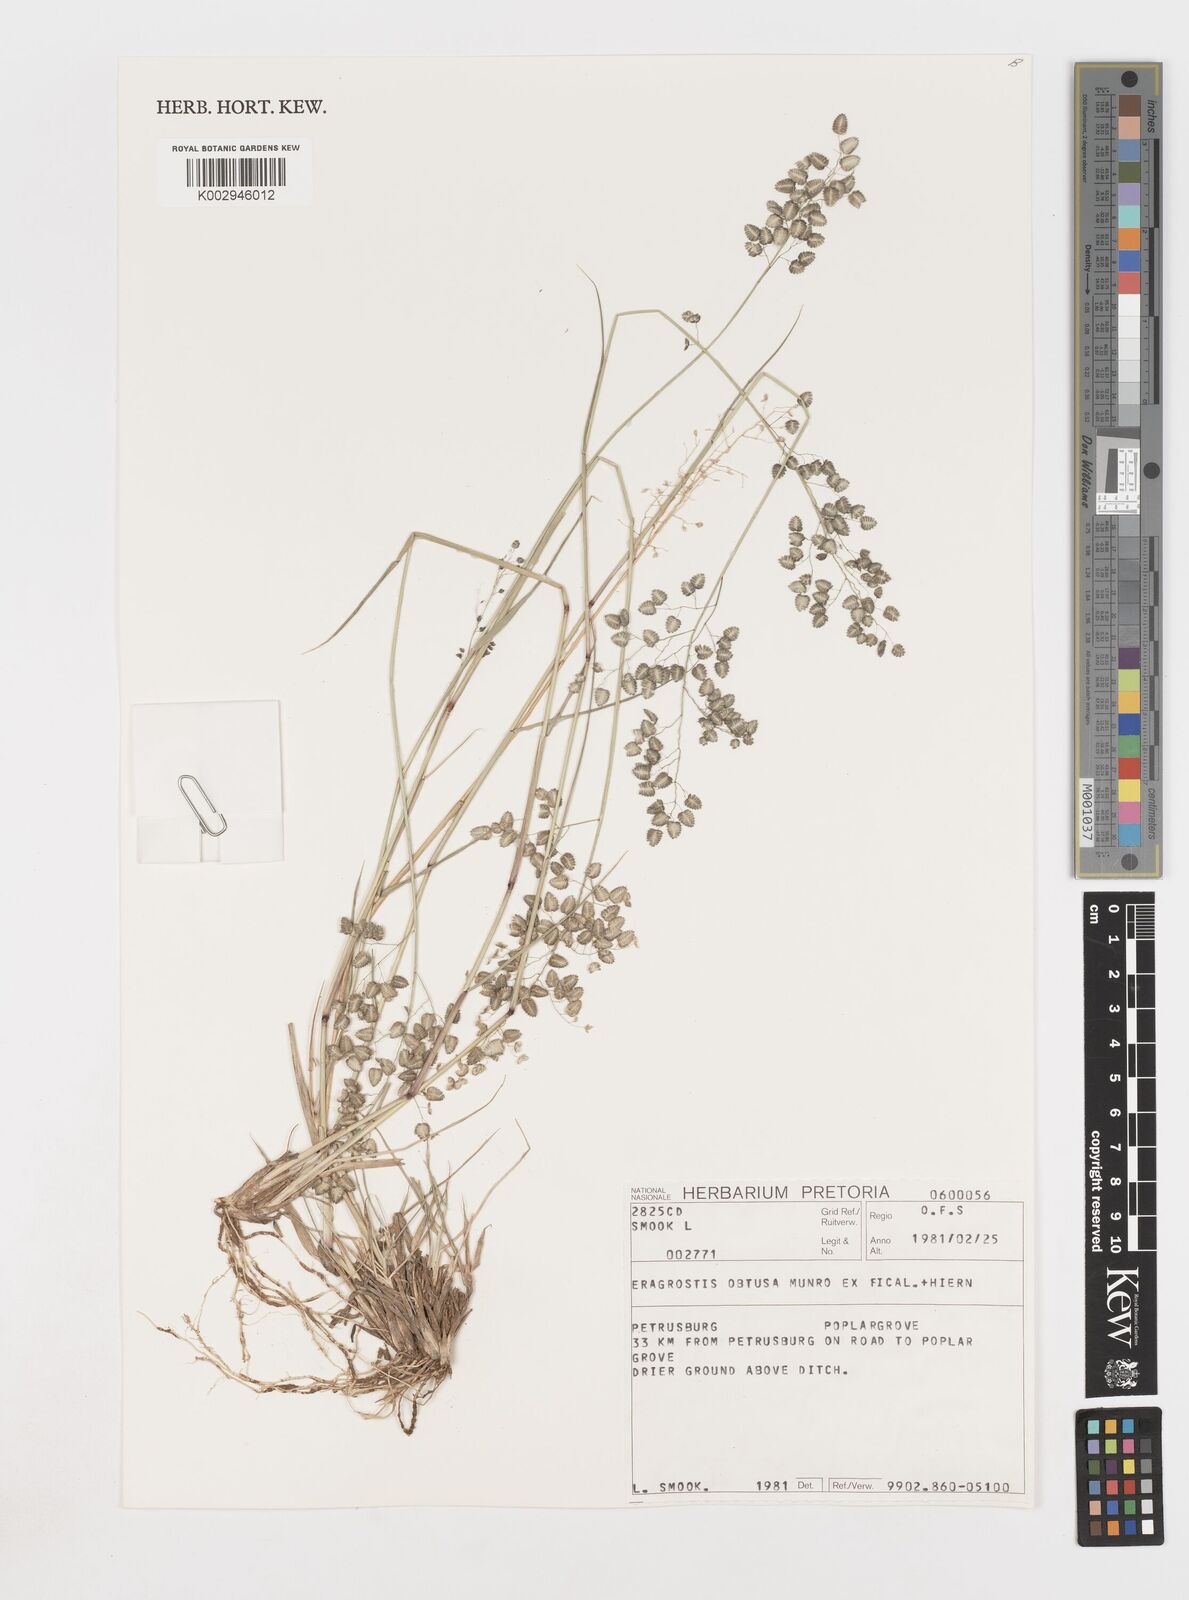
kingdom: Plantae
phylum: Tracheophyta
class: Liliopsida
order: Poales
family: Poaceae
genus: Eragrostis
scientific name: Eragrostis obtusa
